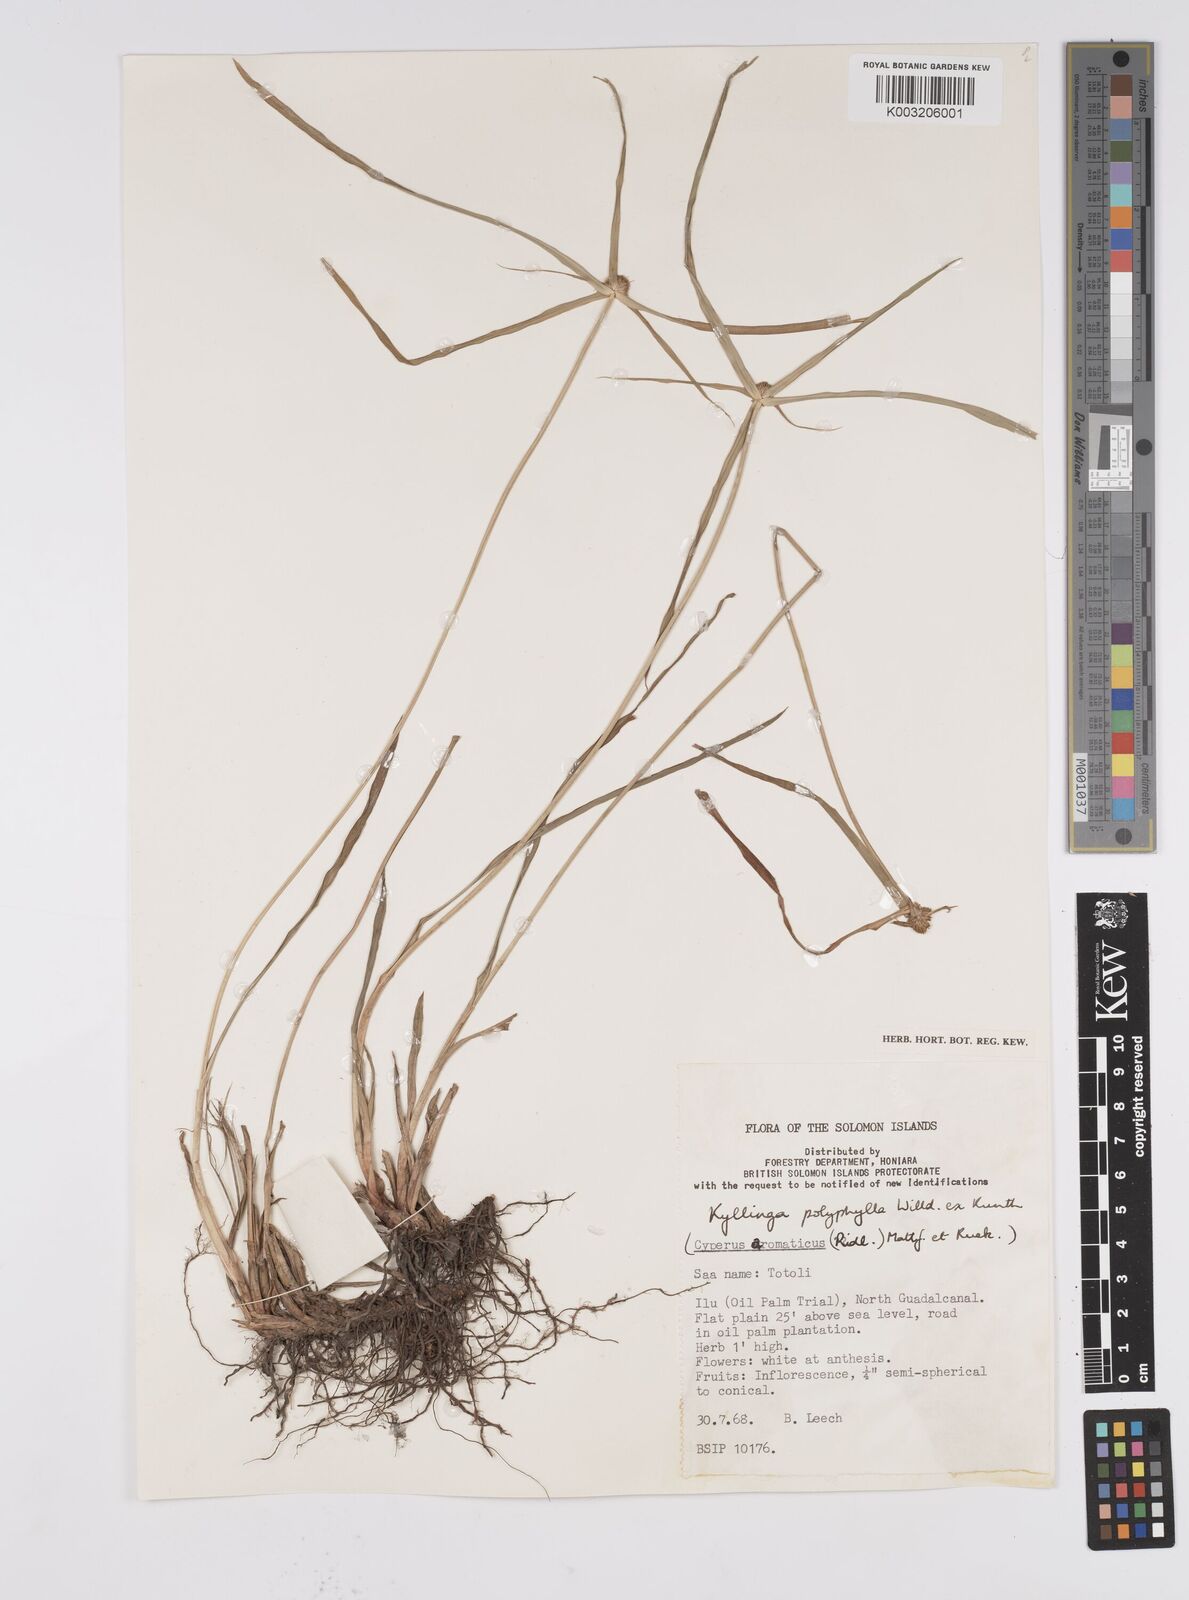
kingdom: Plantae
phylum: Tracheophyta
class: Liliopsida
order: Poales
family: Cyperaceae
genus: Cyperus
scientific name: Cyperus bulbosus
